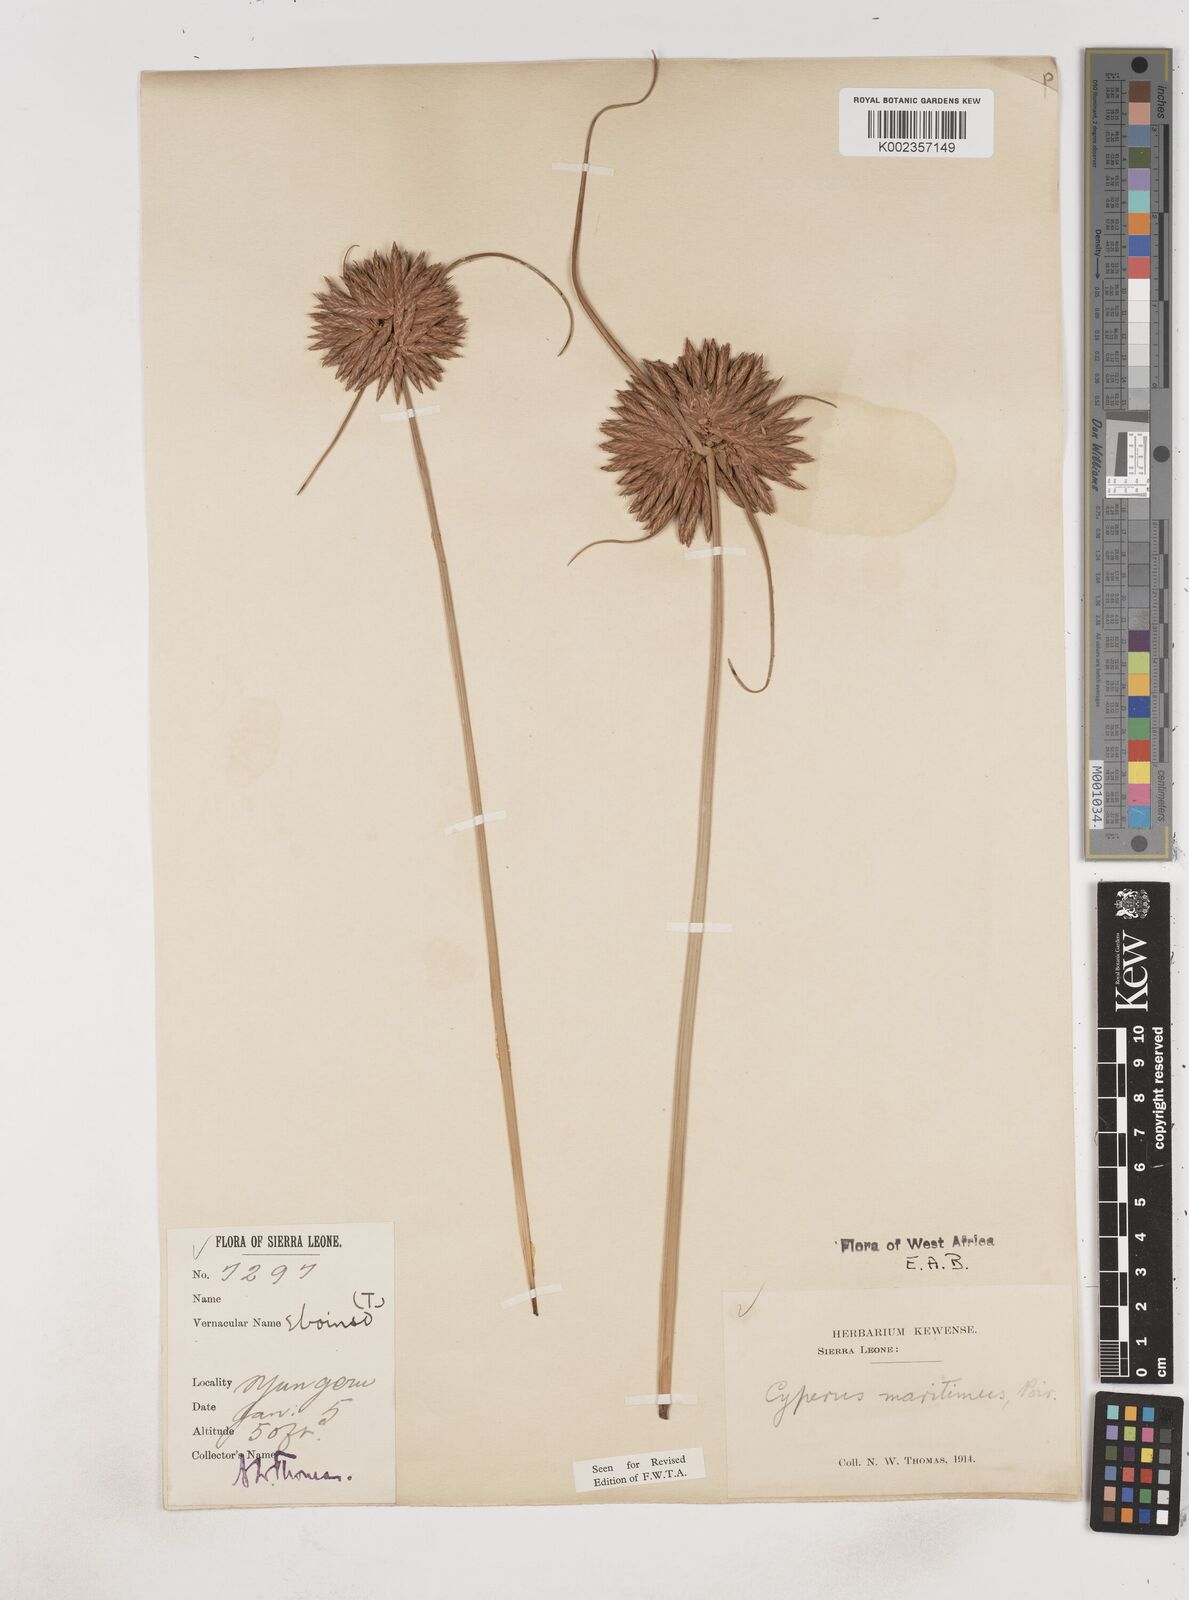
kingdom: Plantae
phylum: Tracheophyta
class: Liliopsida
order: Poales
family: Cyperaceae
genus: Cyperus
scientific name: Cyperus crassipes
